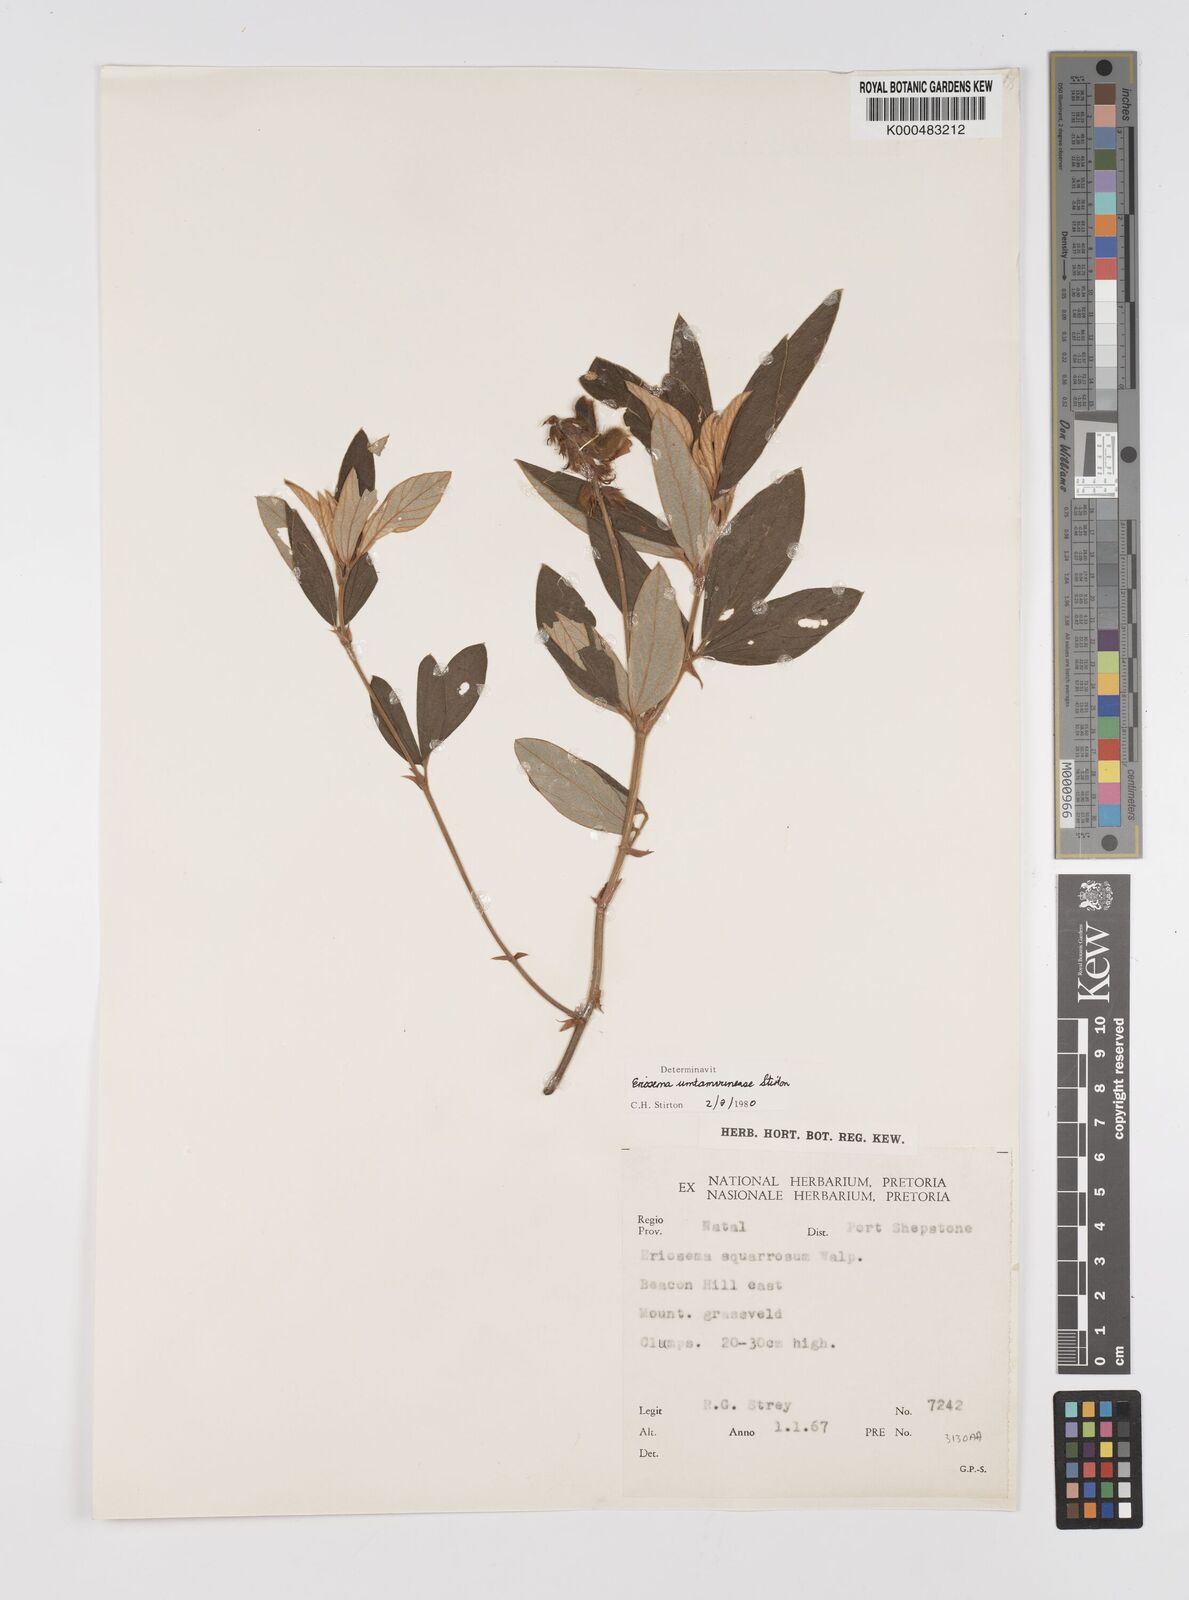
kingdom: Plantae
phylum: Tracheophyta
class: Magnoliopsida
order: Fabales
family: Fabaceae
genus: Eriosema
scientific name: Eriosema umtamvunense
